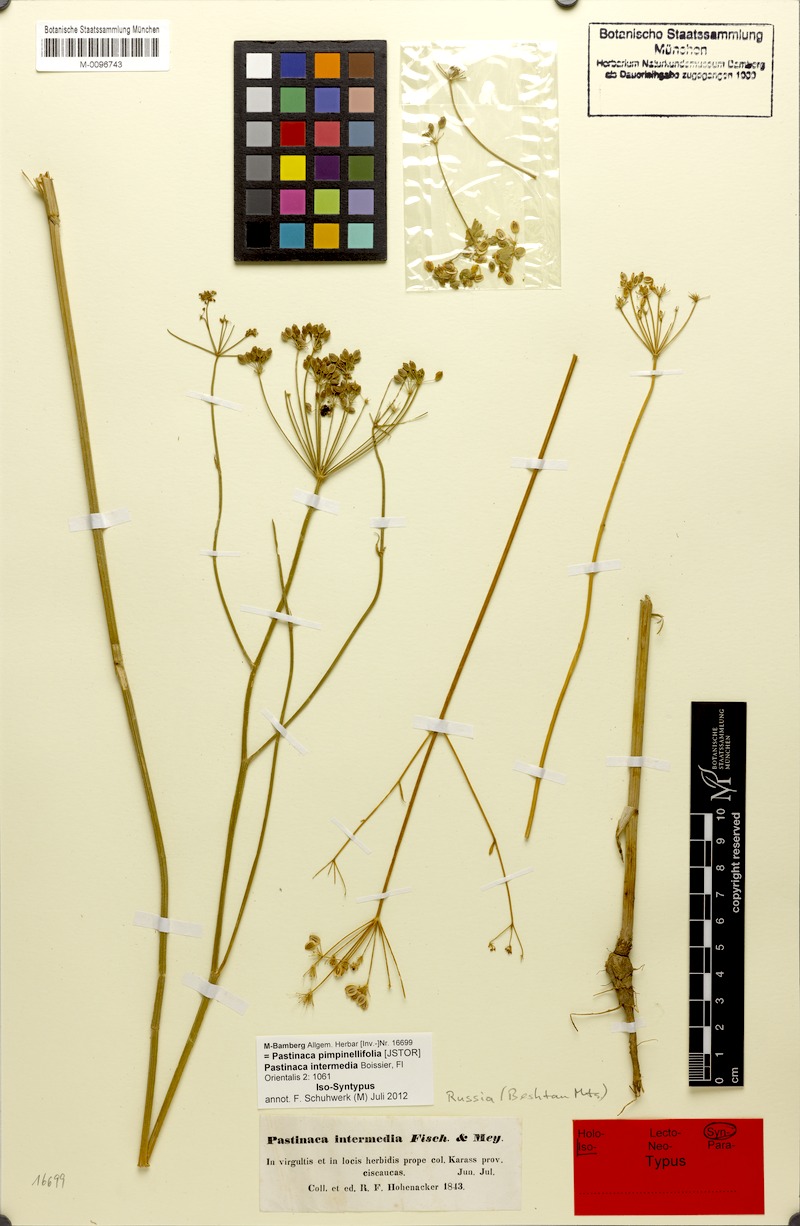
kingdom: Plantae
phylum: Tracheophyta
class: Magnoliopsida
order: Apiales
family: Apiaceae
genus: Pastinaca
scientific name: Pastinaca pimpinellifolia
